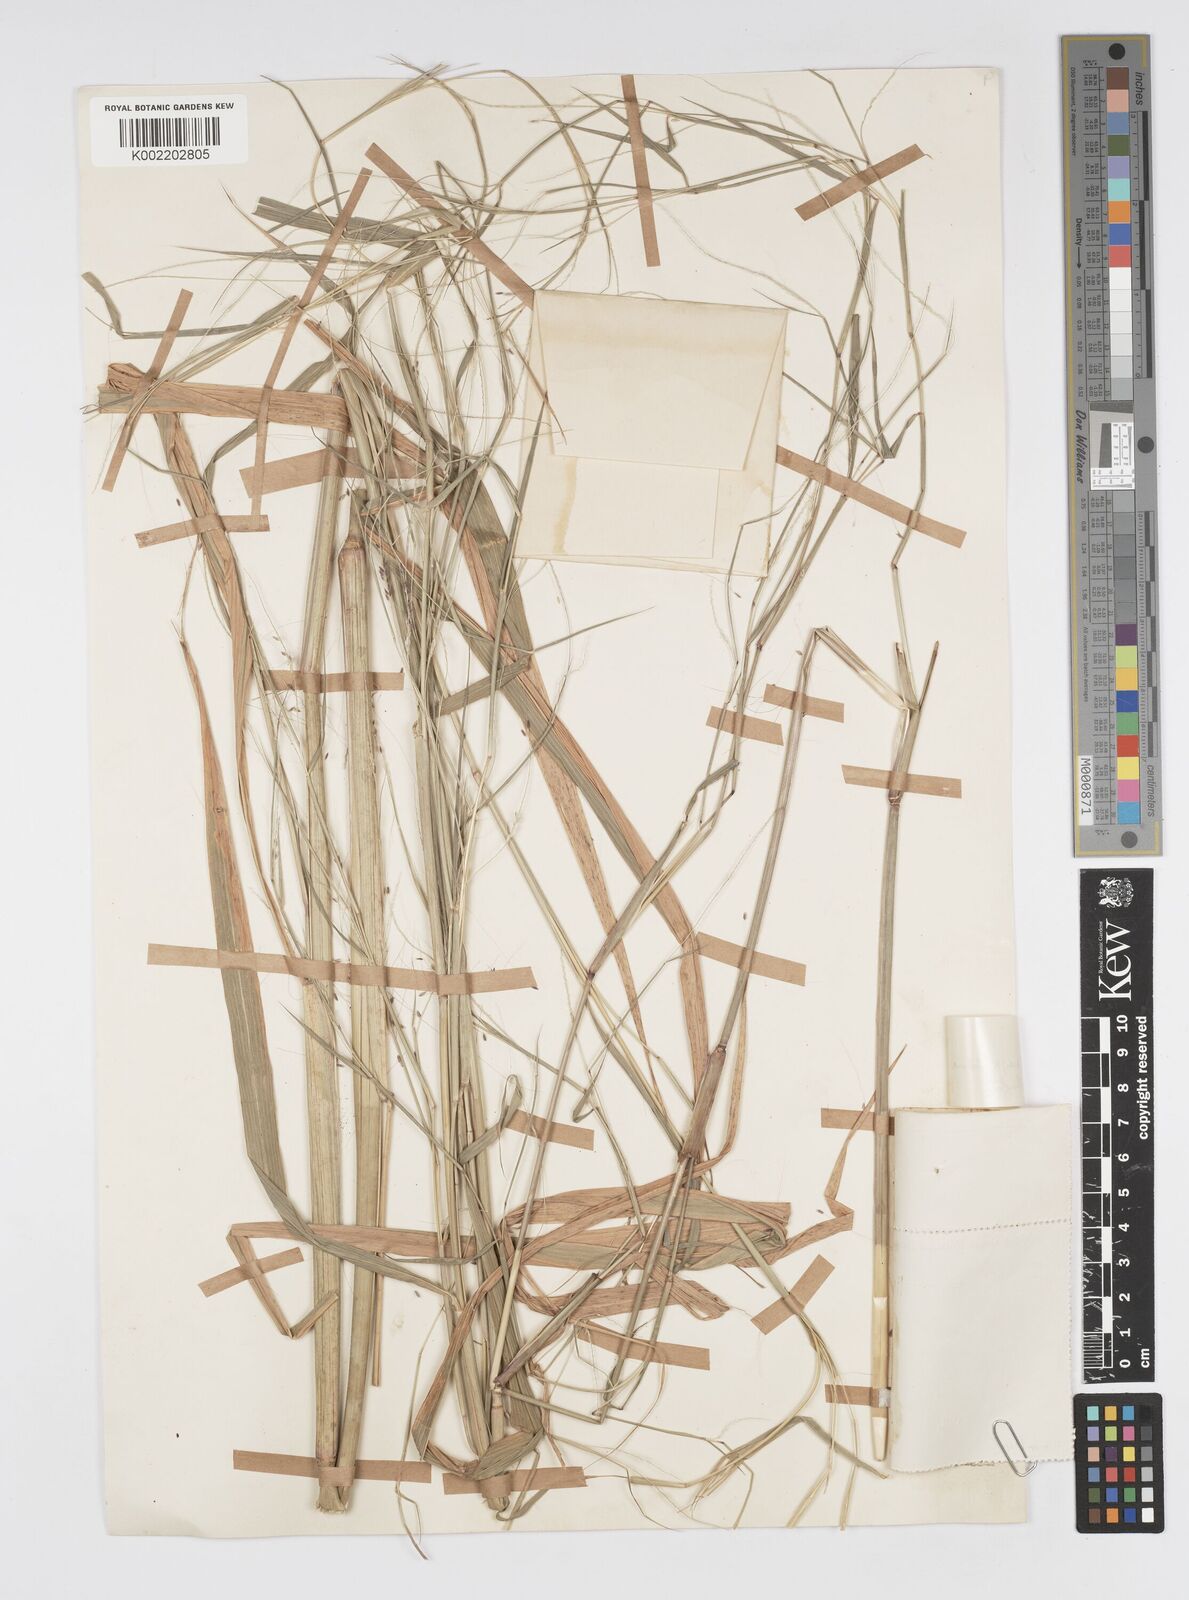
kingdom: Plantae
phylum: Tracheophyta
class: Liliopsida
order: Poales
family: Poaceae
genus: Cenchrus
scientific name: Cenchrus unisetus
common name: Natal grass
